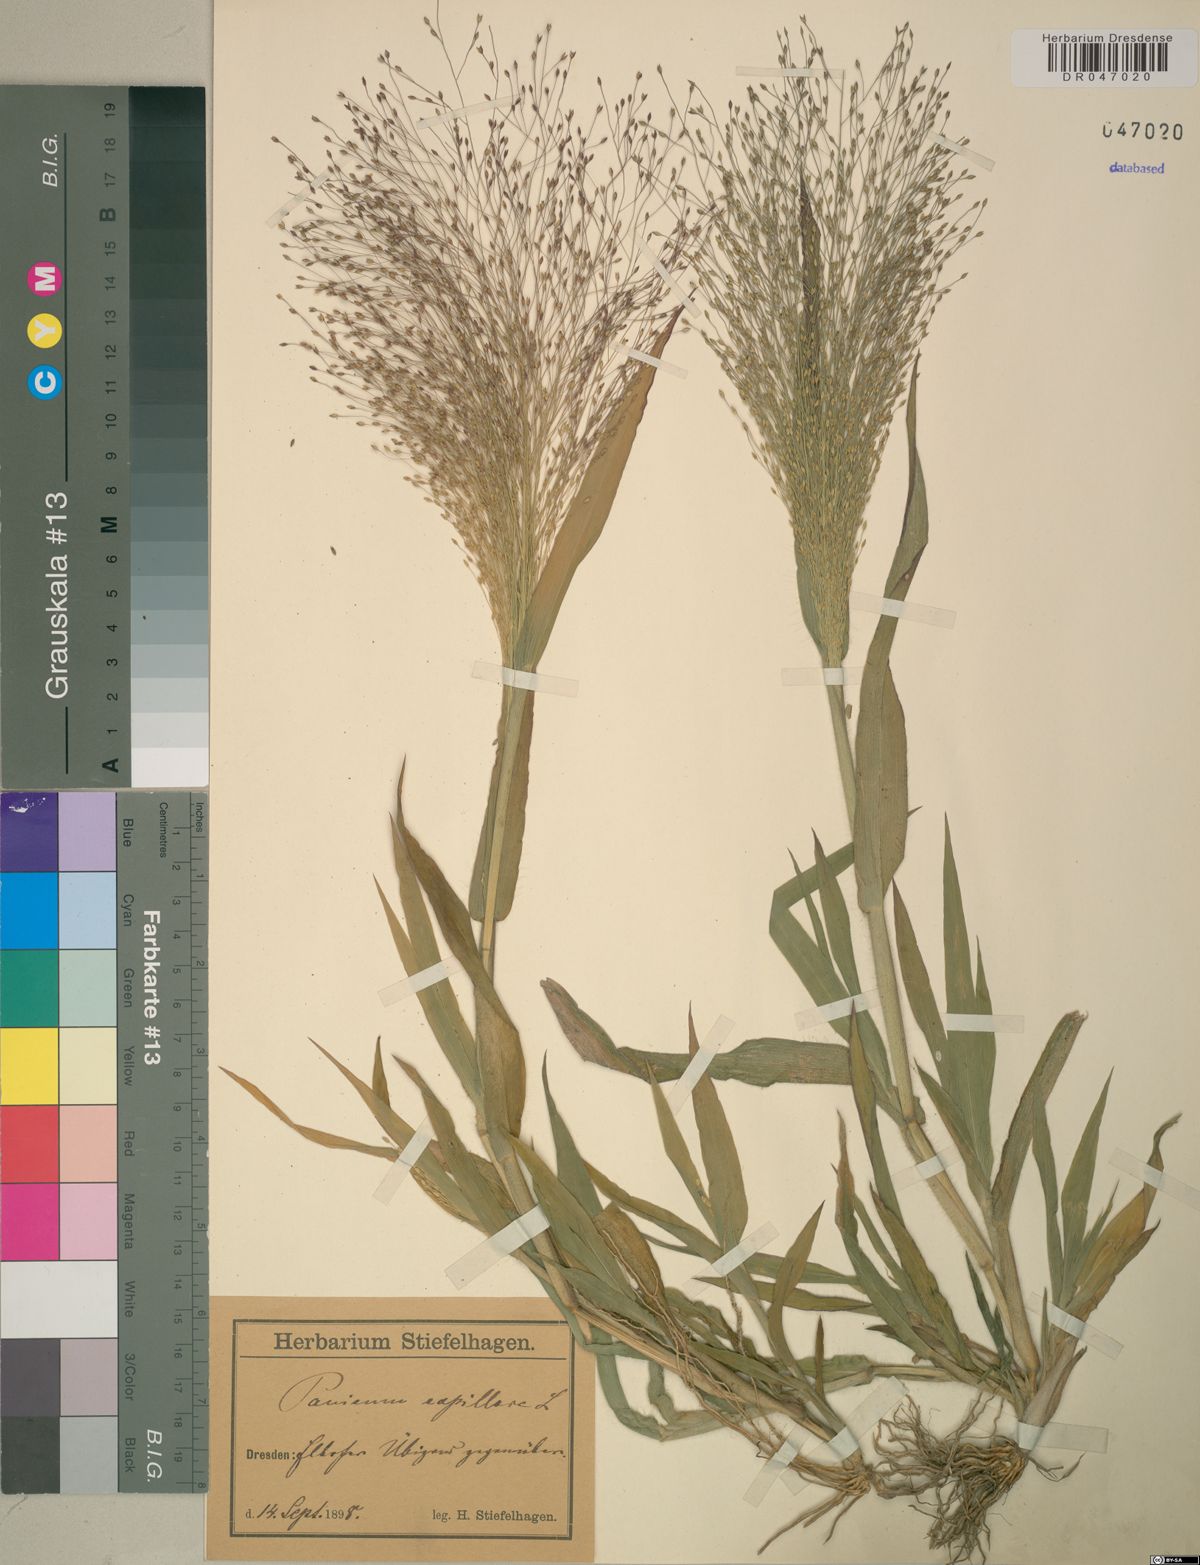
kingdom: Plantae
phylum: Tracheophyta
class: Liliopsida
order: Poales
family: Poaceae
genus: Panicum
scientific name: Panicum capillare
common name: Witch-grass
